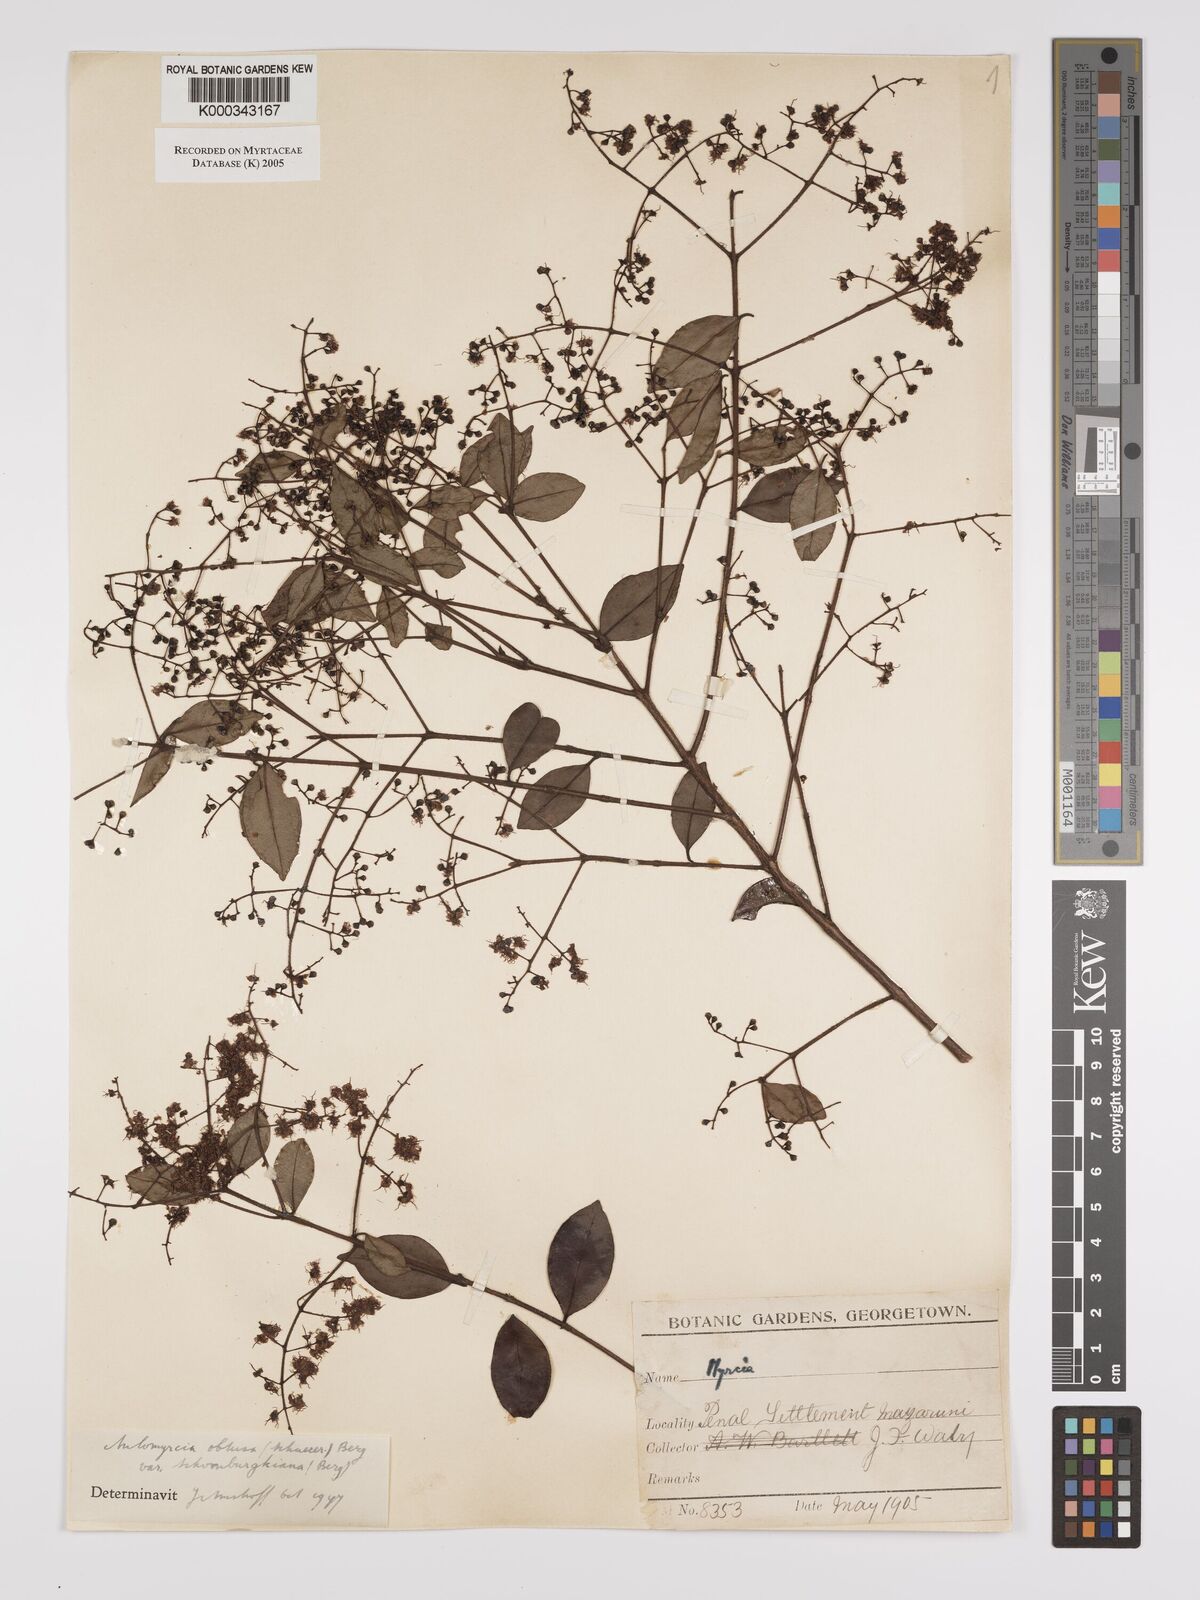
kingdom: Plantae
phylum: Tracheophyta
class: Magnoliopsida
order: Myrtales
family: Myrtaceae
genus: Myrcia
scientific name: Myrcia guianensis
